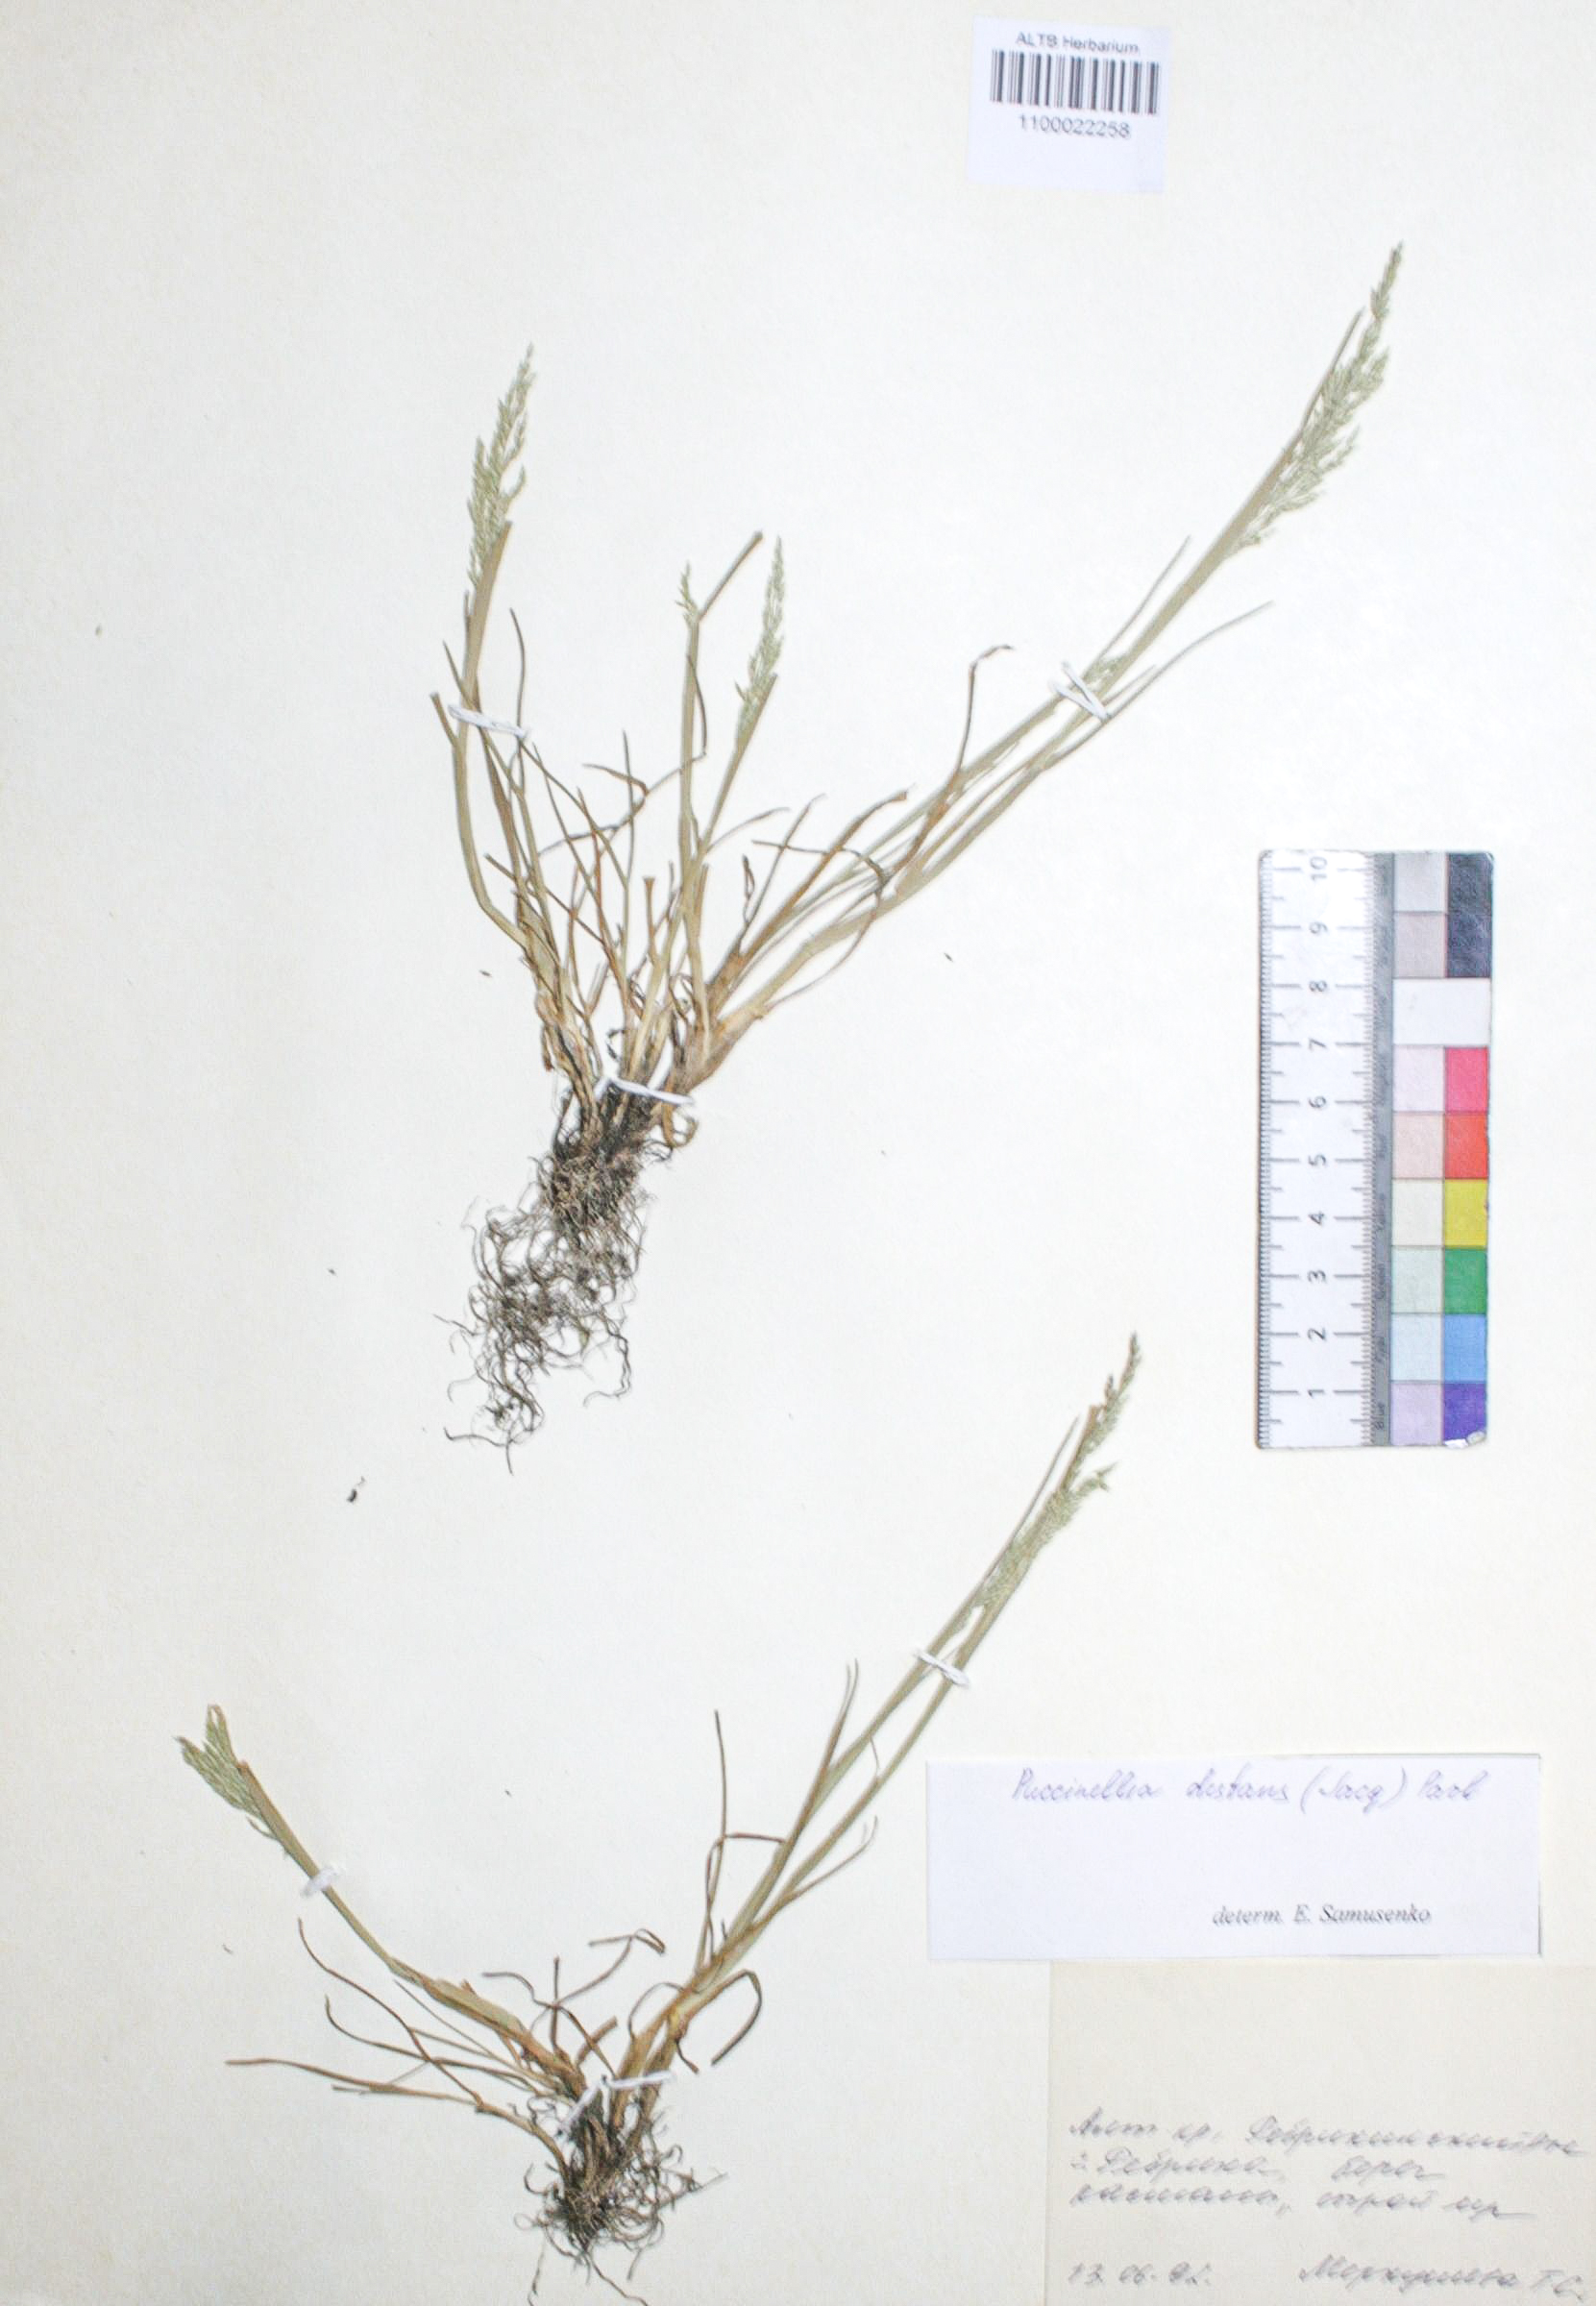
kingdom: Plantae
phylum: Tracheophyta
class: Liliopsida
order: Poales
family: Poaceae
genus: Puccinellia
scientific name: Puccinellia distans
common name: Weeping alkaligrass
